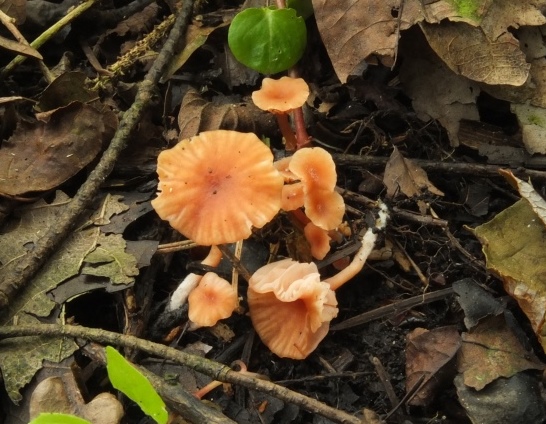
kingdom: Fungi
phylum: Basidiomycota
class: Agaricomycetes
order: Agaricales
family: Hydnangiaceae
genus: Laccaria
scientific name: Laccaria tortilis
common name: krybende ametysthat
